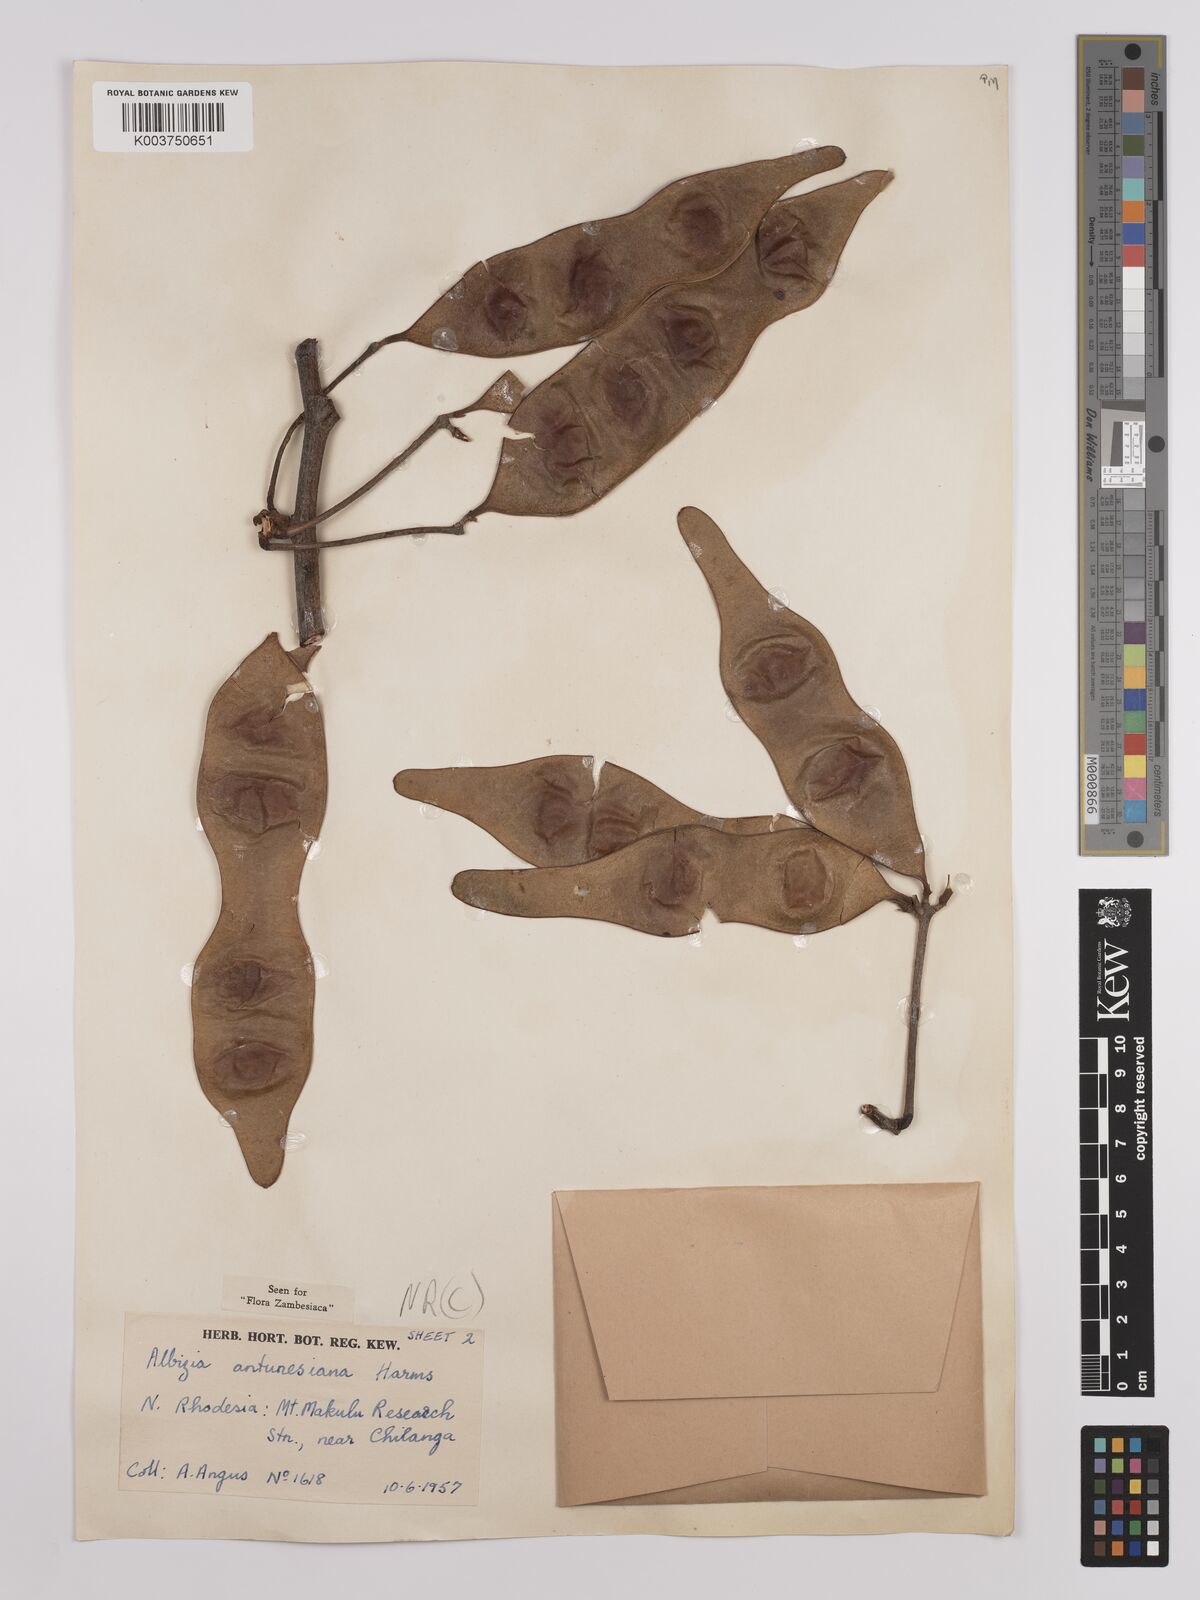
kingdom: Plantae
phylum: Tracheophyta
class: Magnoliopsida
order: Fabales
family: Fabaceae
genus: Albizia
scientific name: Albizia antunesiana
